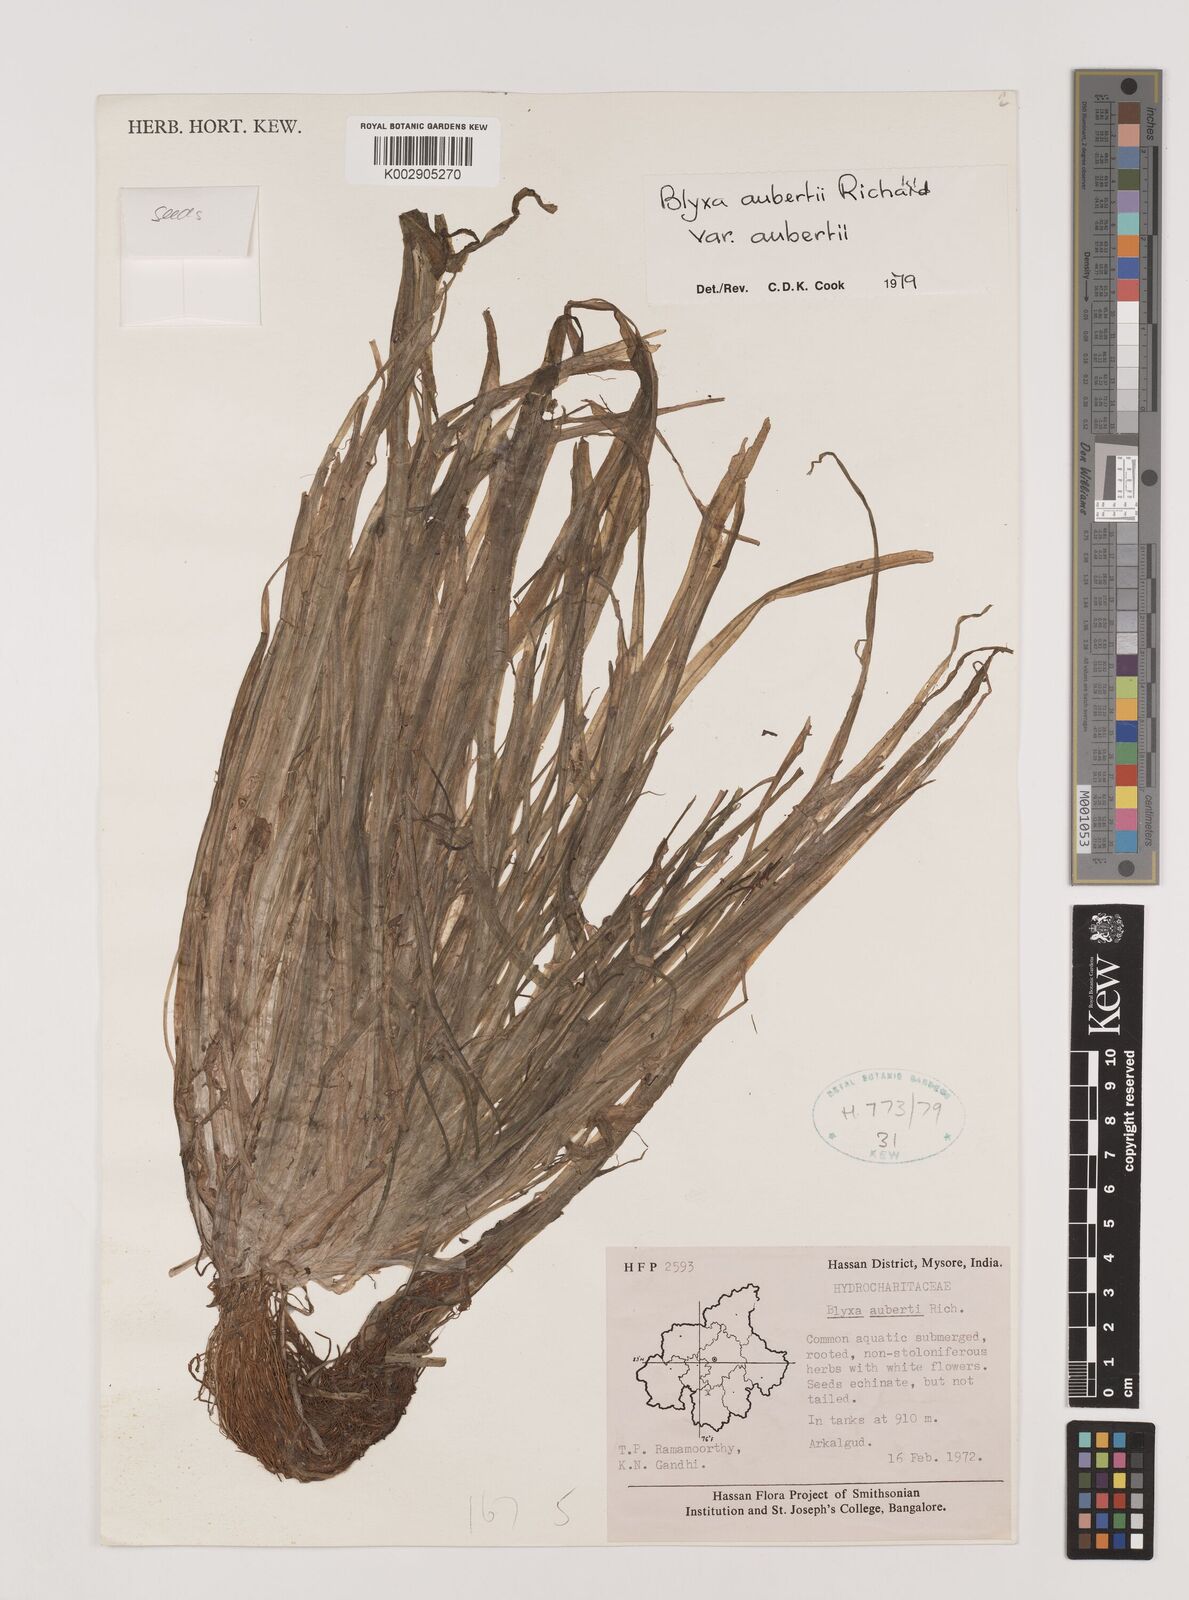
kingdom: Plantae
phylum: Tracheophyta
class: Liliopsida
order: Alismatales
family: Hydrocharitaceae
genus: Blyxa
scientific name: Blyxa aubertii
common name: Roundfruit blyxa
